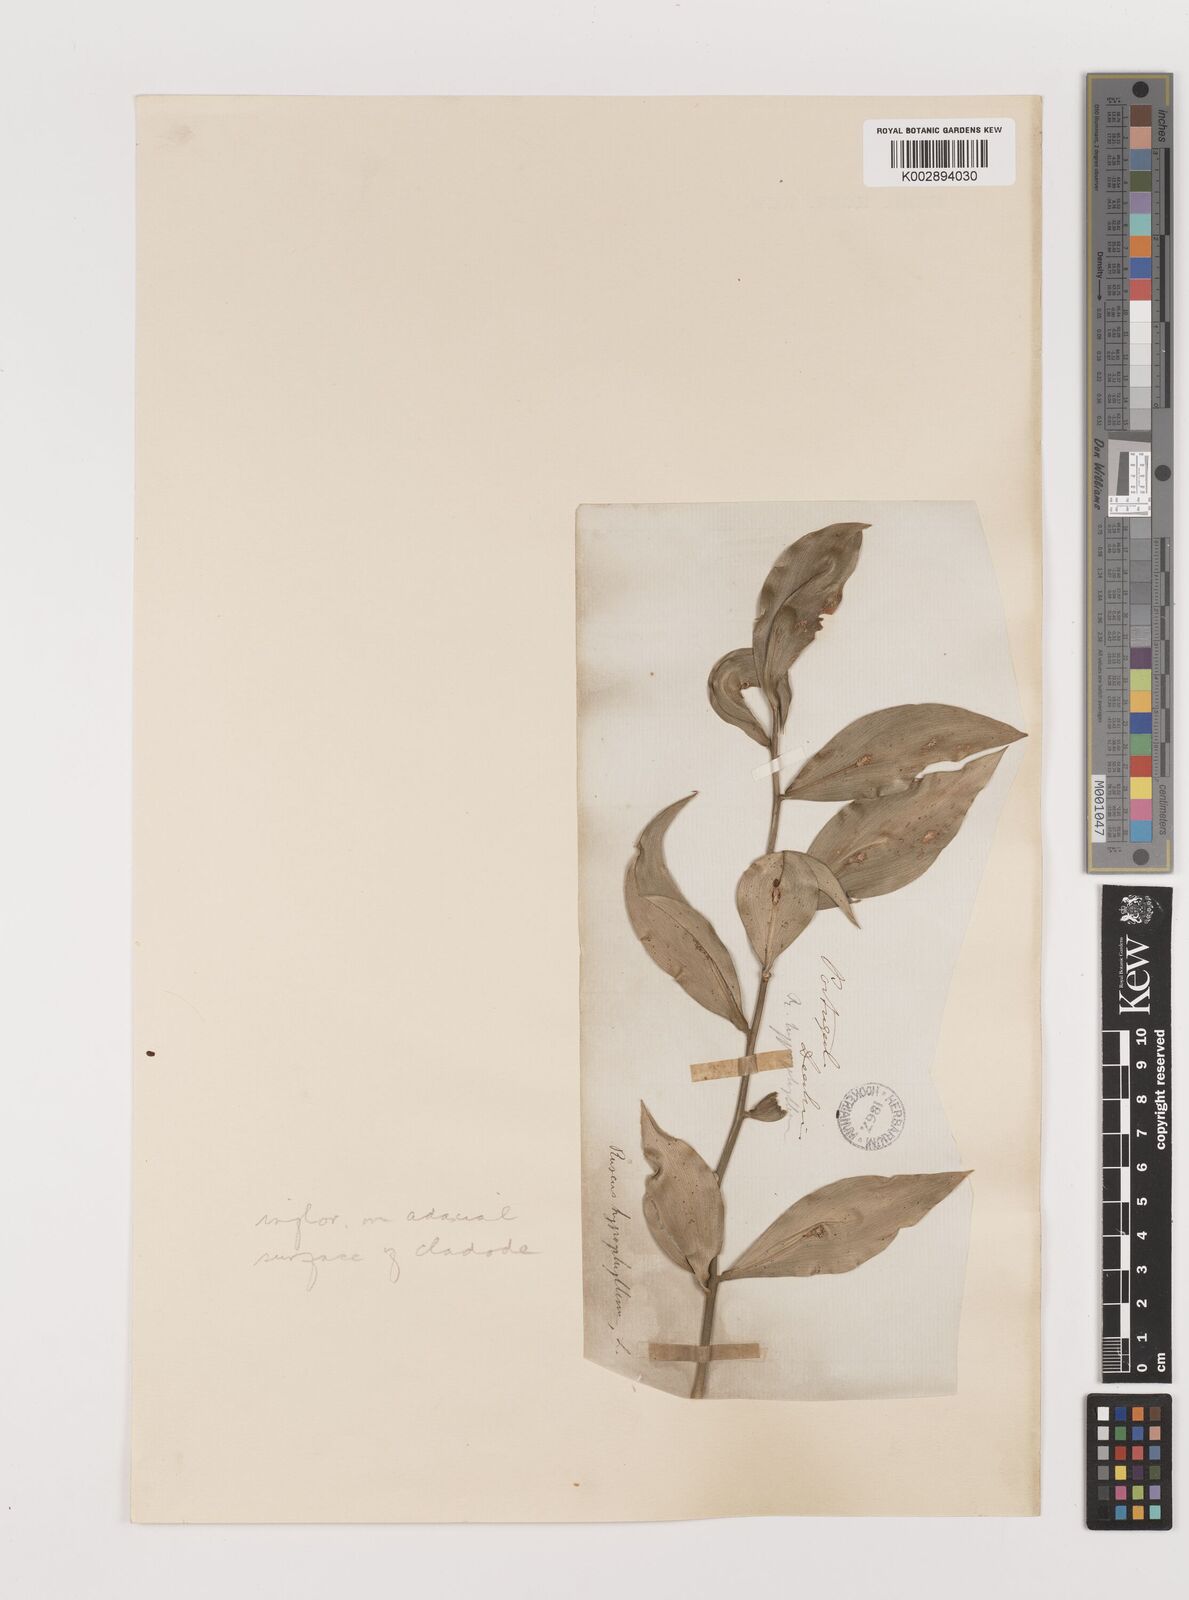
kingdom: Plantae
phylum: Tracheophyta
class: Liliopsida
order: Asparagales
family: Asparagaceae
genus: Ruscus
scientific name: Ruscus hypophyllum
